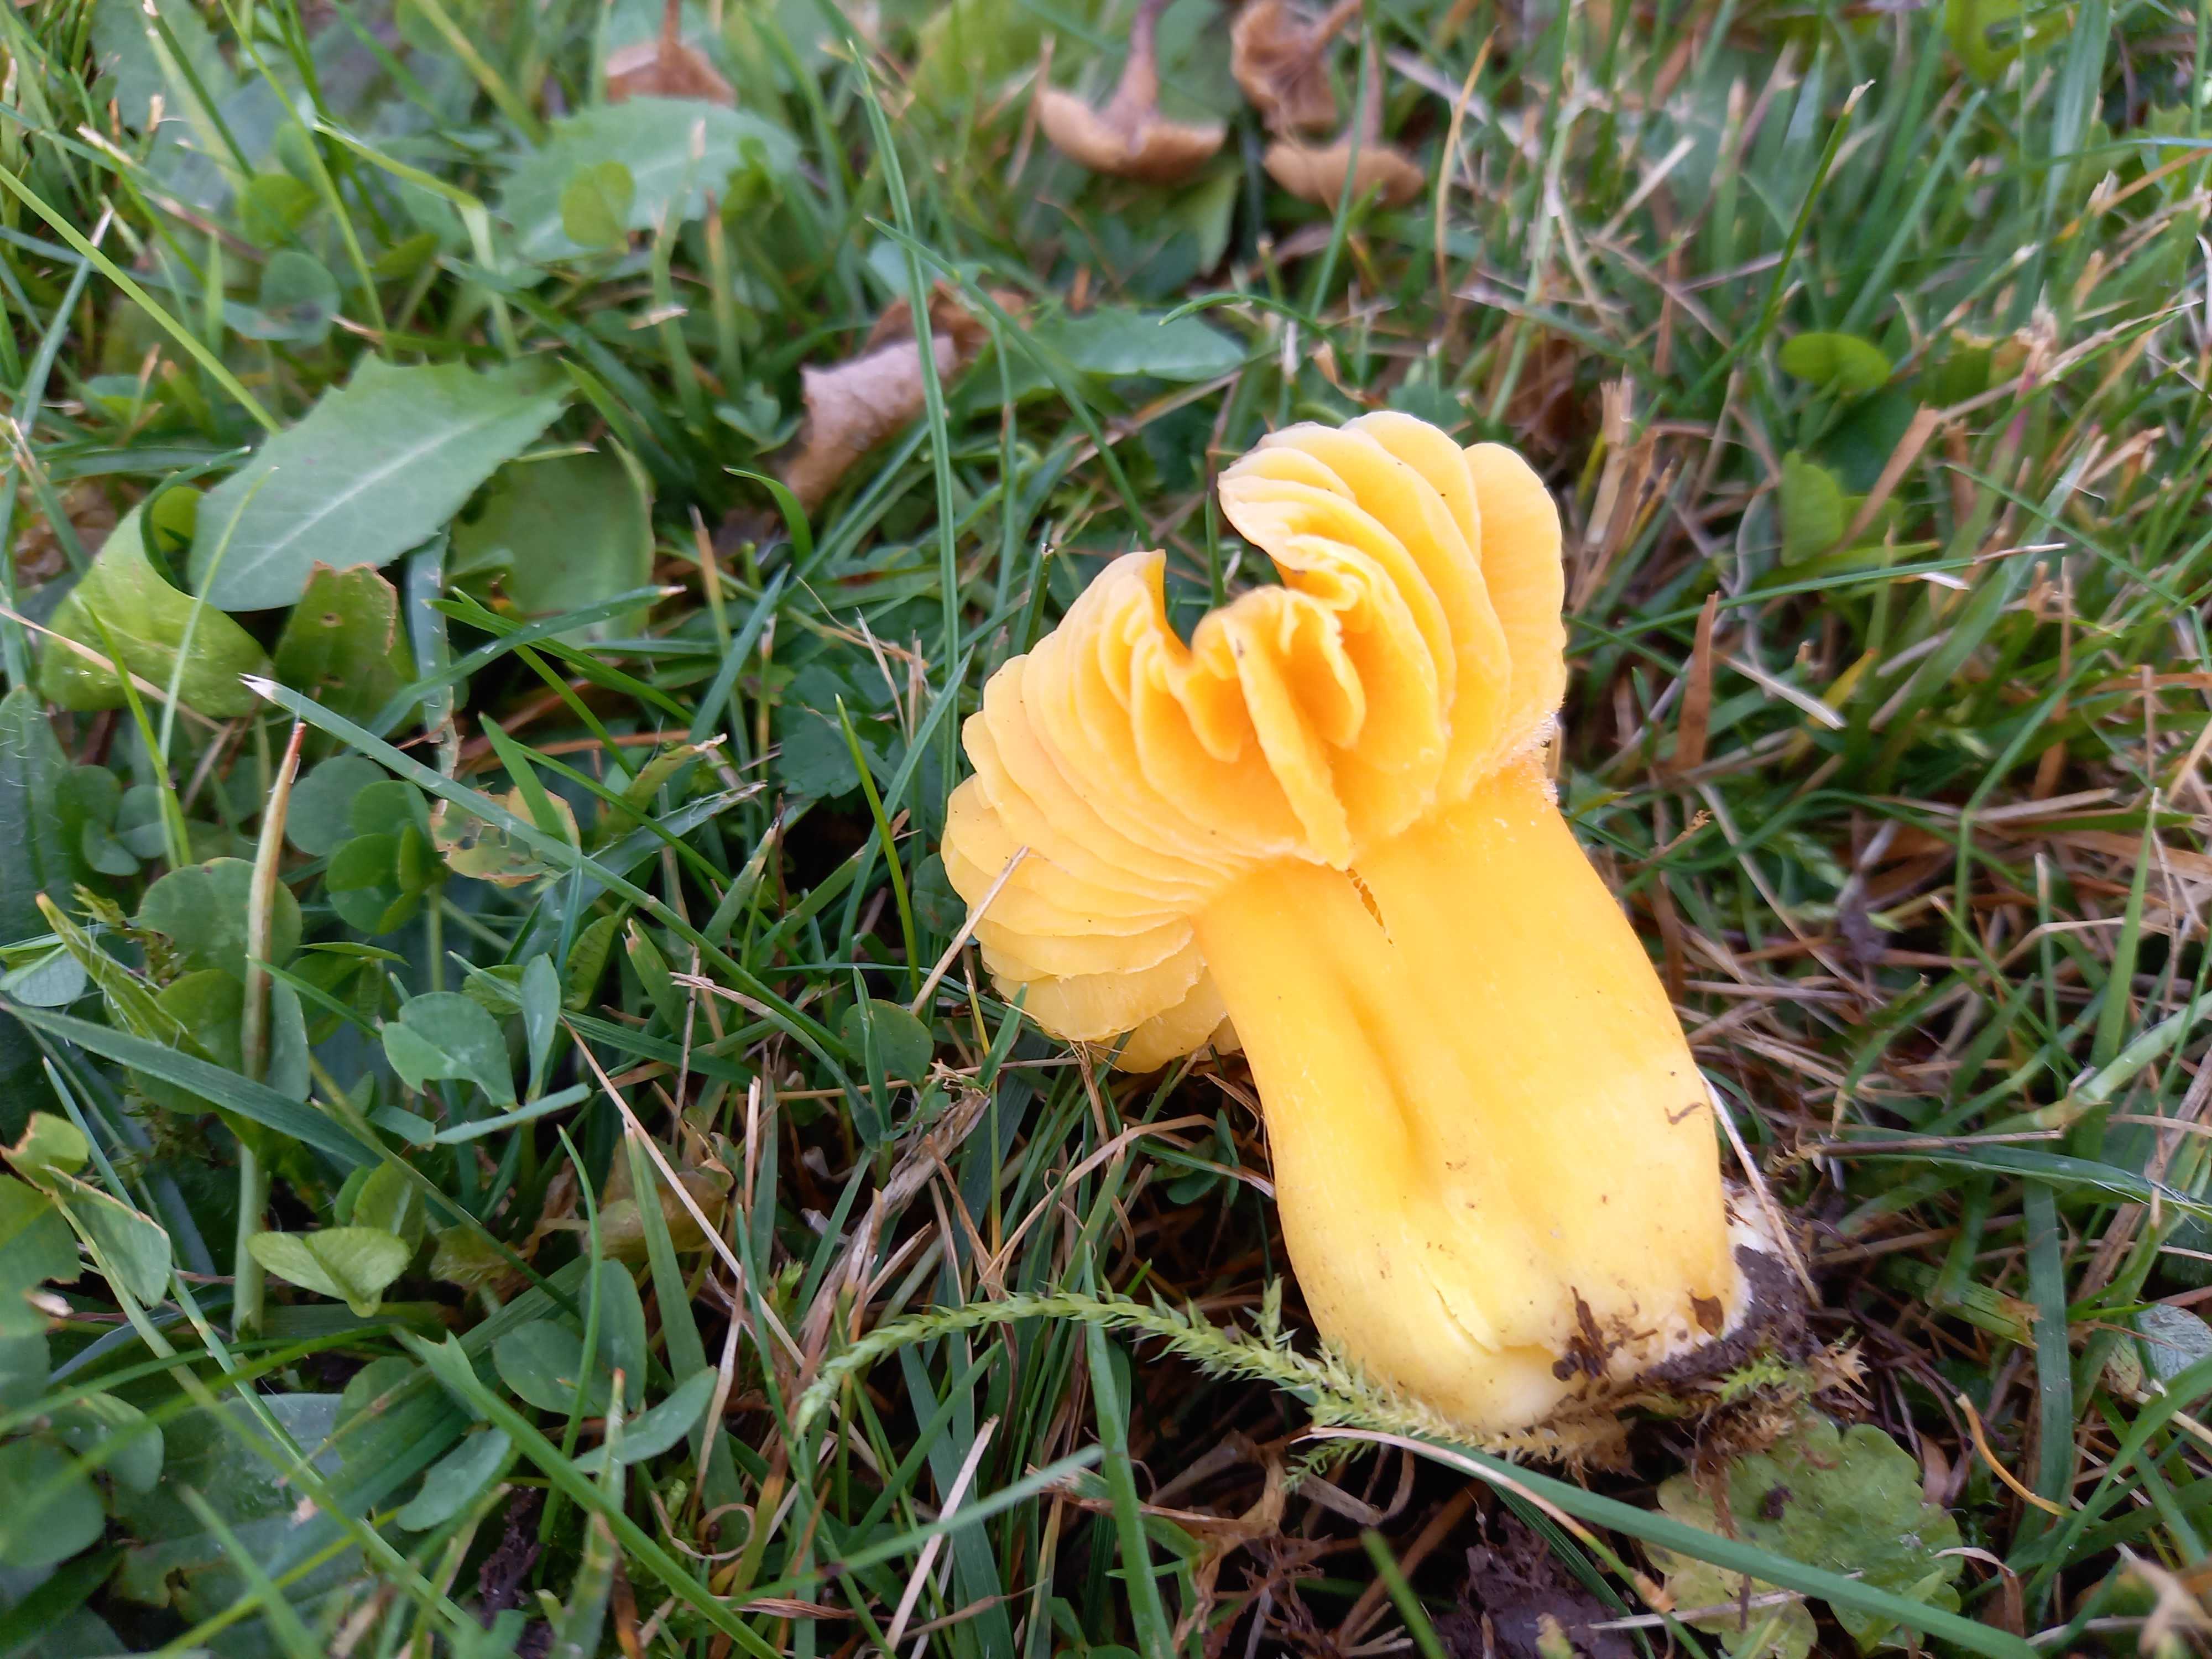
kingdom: Fungi
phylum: Basidiomycota
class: Agaricomycetes
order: Agaricales
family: Hygrophoraceae
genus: Hygrocybe
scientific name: Hygrocybe quieta
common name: tæge-vokshat
